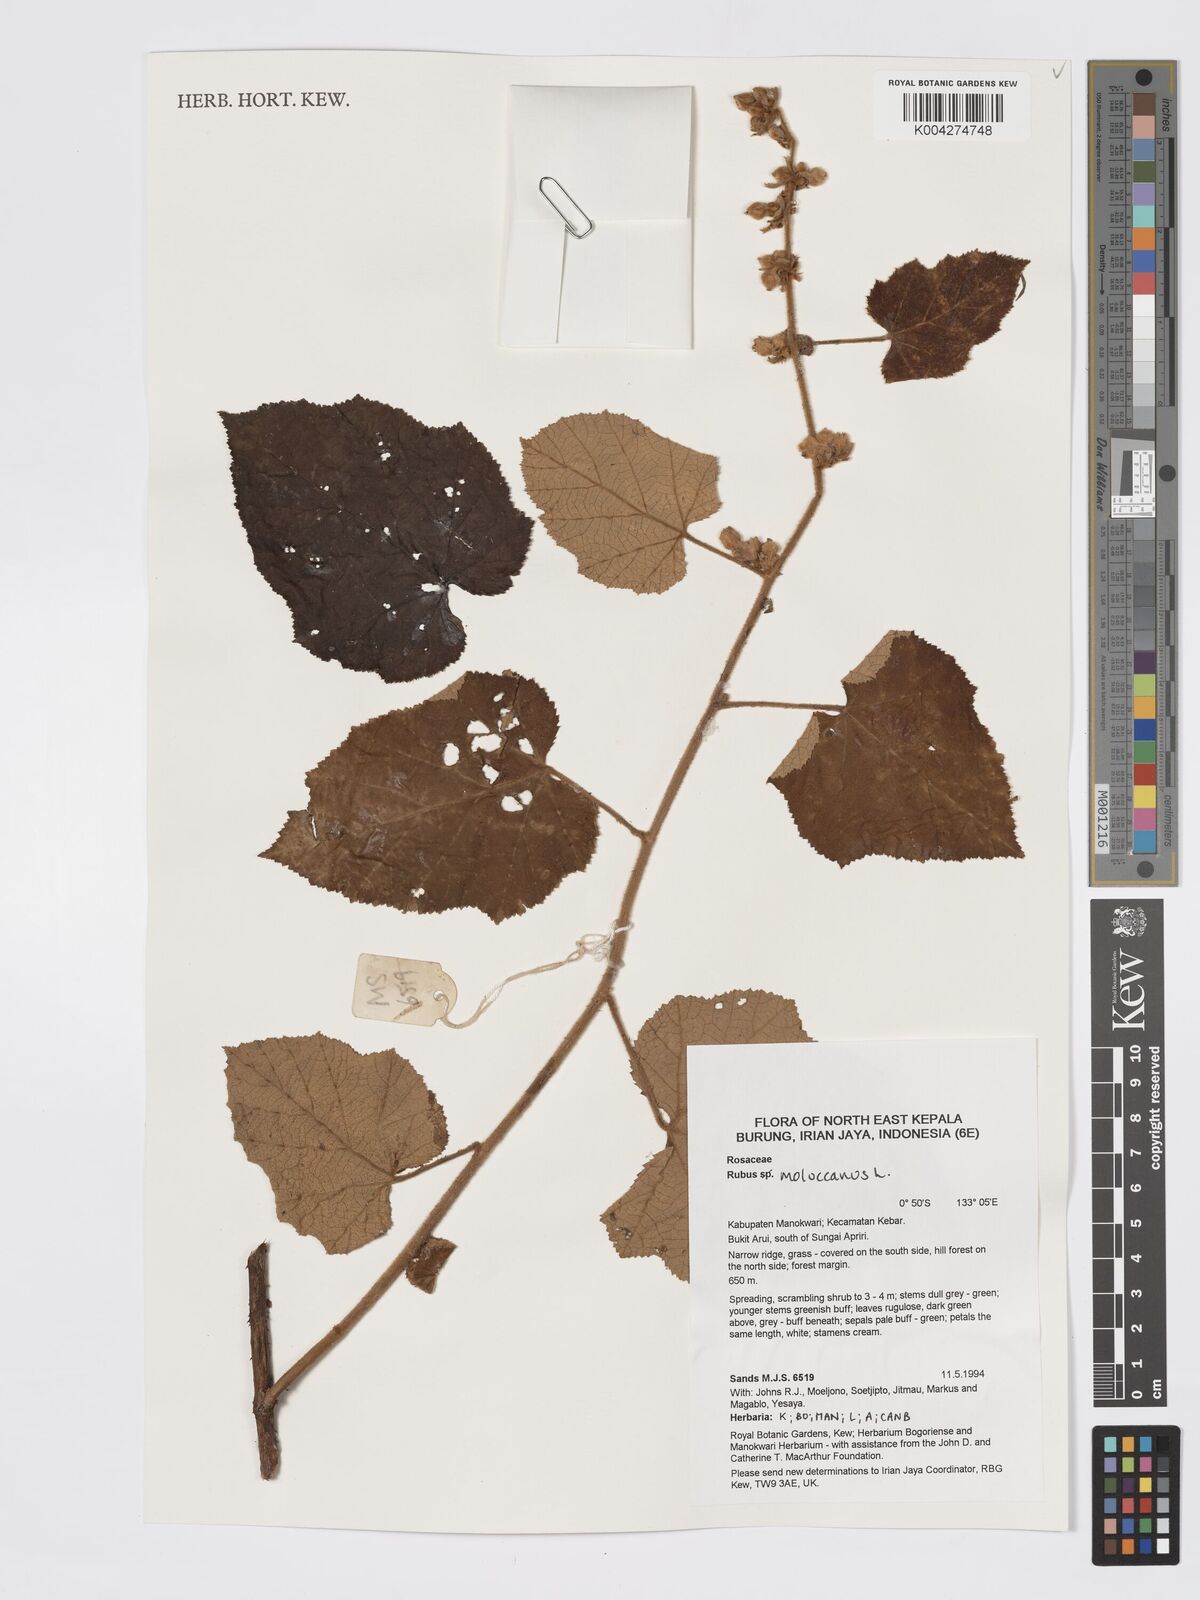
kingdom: Plantae
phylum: Tracheophyta
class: Magnoliopsida
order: Rosales
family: Rosaceae
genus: Rubus
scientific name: Rubus moluccanus
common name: Wild raspberry
